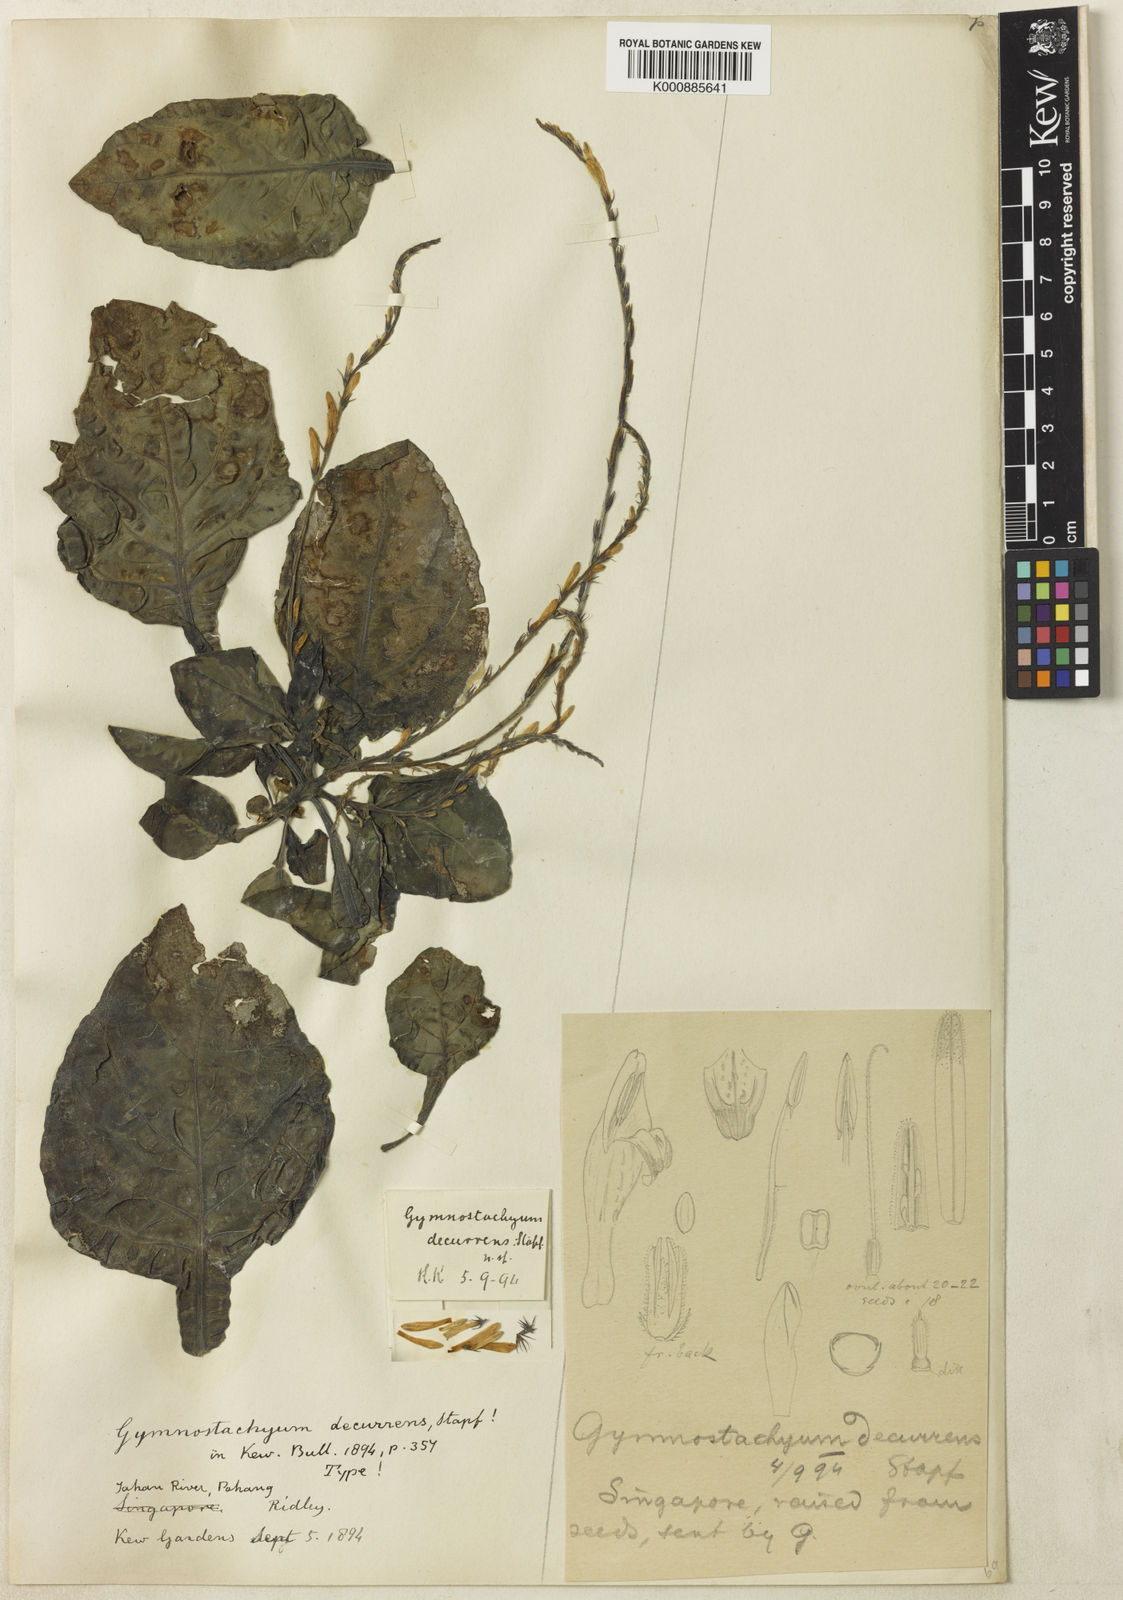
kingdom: Plantae
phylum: Tracheophyta
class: Magnoliopsida
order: Lamiales
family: Acanthaceae
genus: Gymnostachyum
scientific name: Gymnostachyum decurrens
